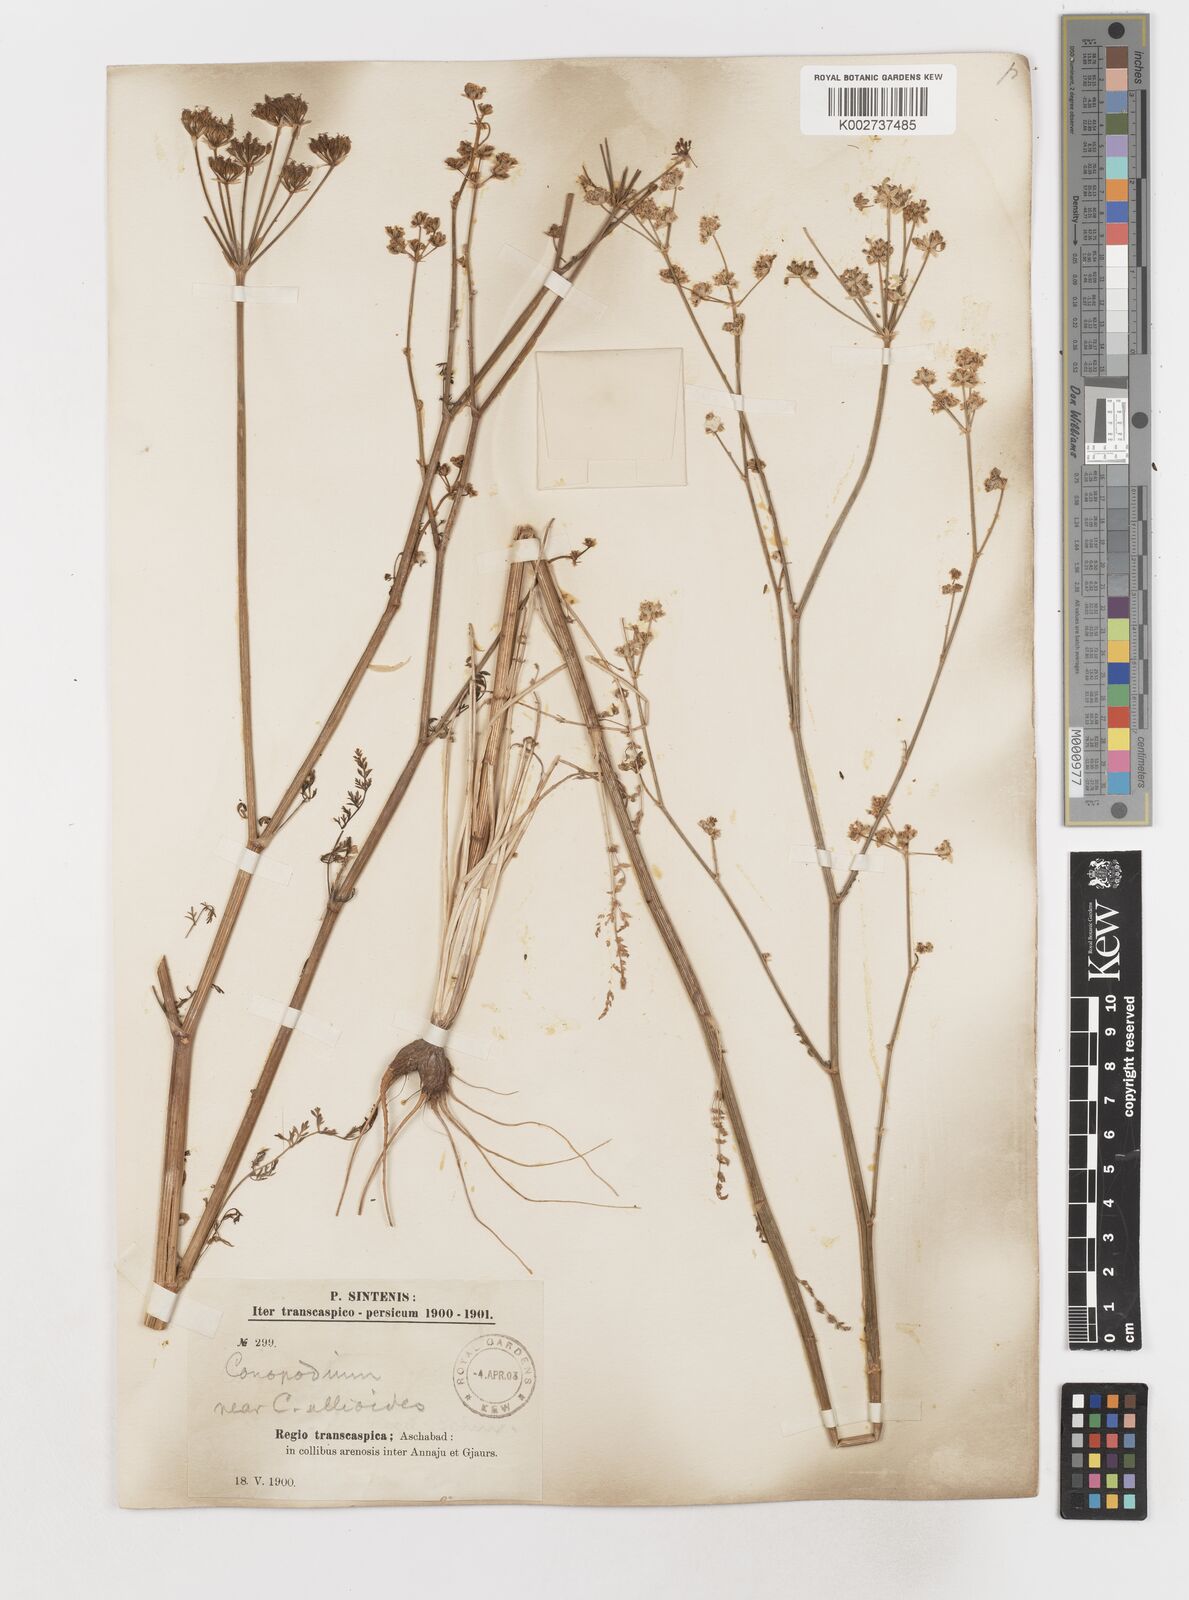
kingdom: Plantae
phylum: Tracheophyta
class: Magnoliopsida
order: Apiales
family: Apiaceae
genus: Scaligeria
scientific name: Scaligeria allioides
